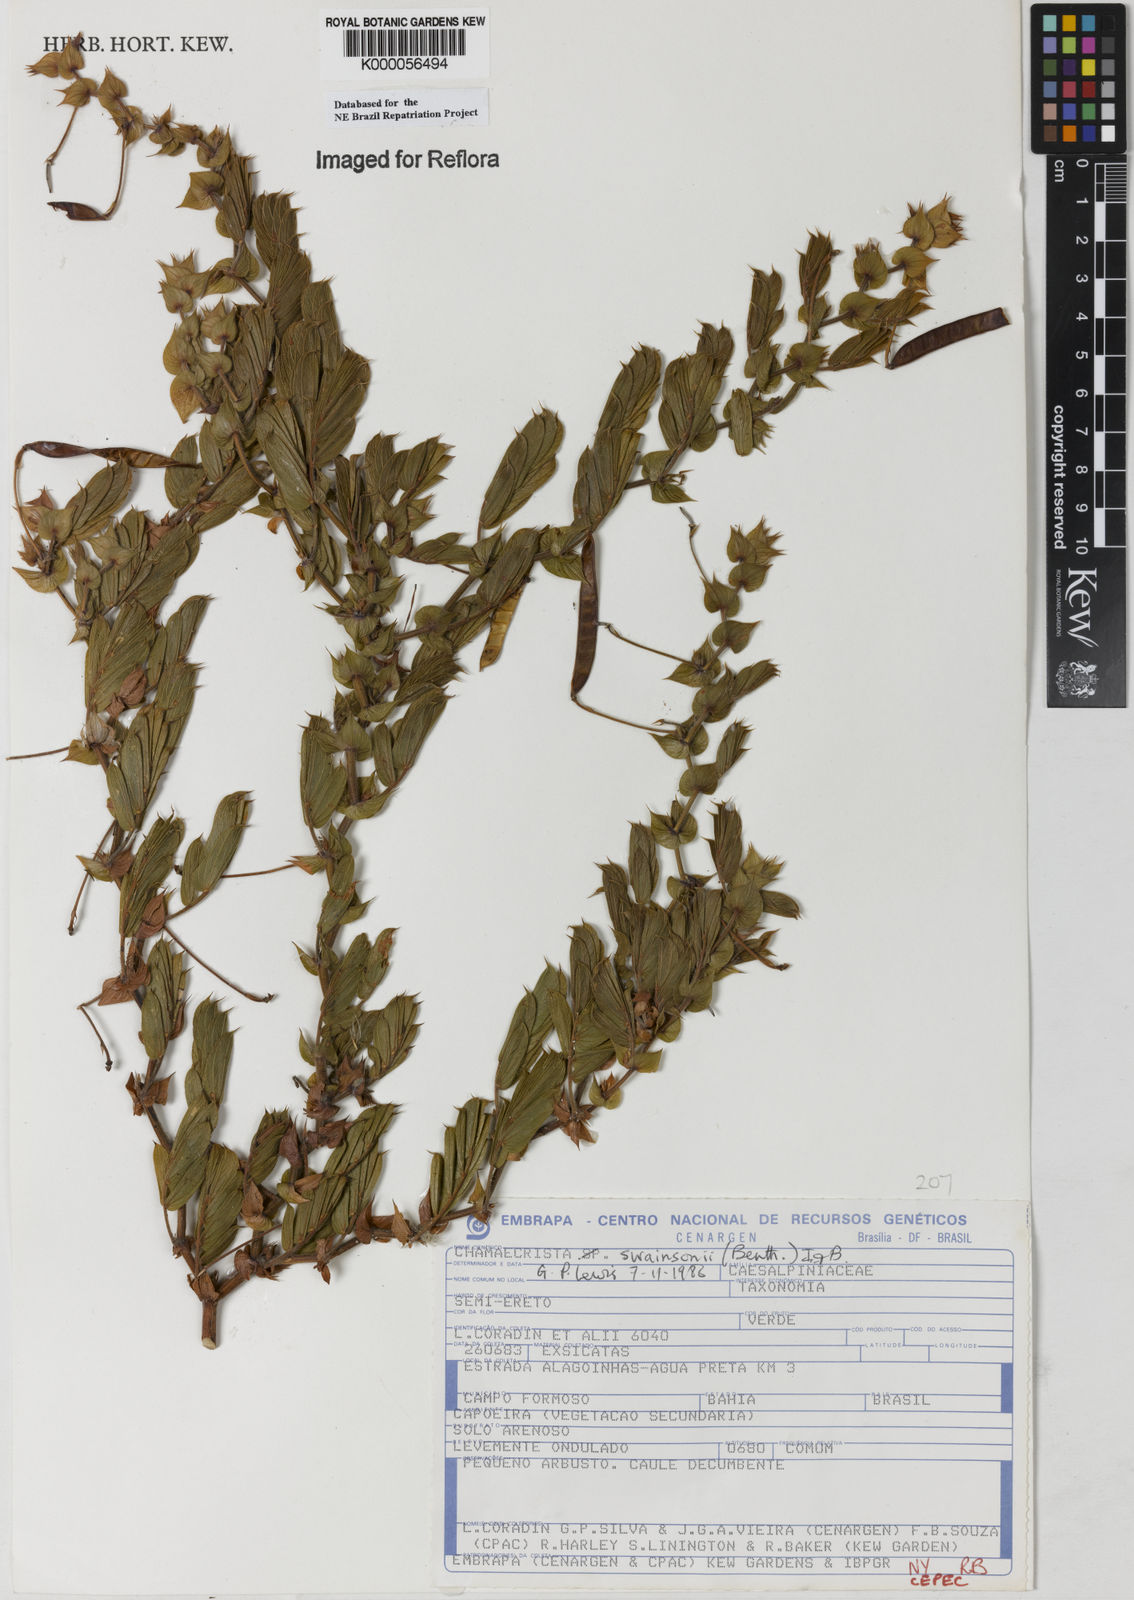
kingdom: Plantae
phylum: Tracheophyta
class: Magnoliopsida
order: Fabales
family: Fabaceae
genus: Chamaecrista
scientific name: Chamaecrista swainsonii
